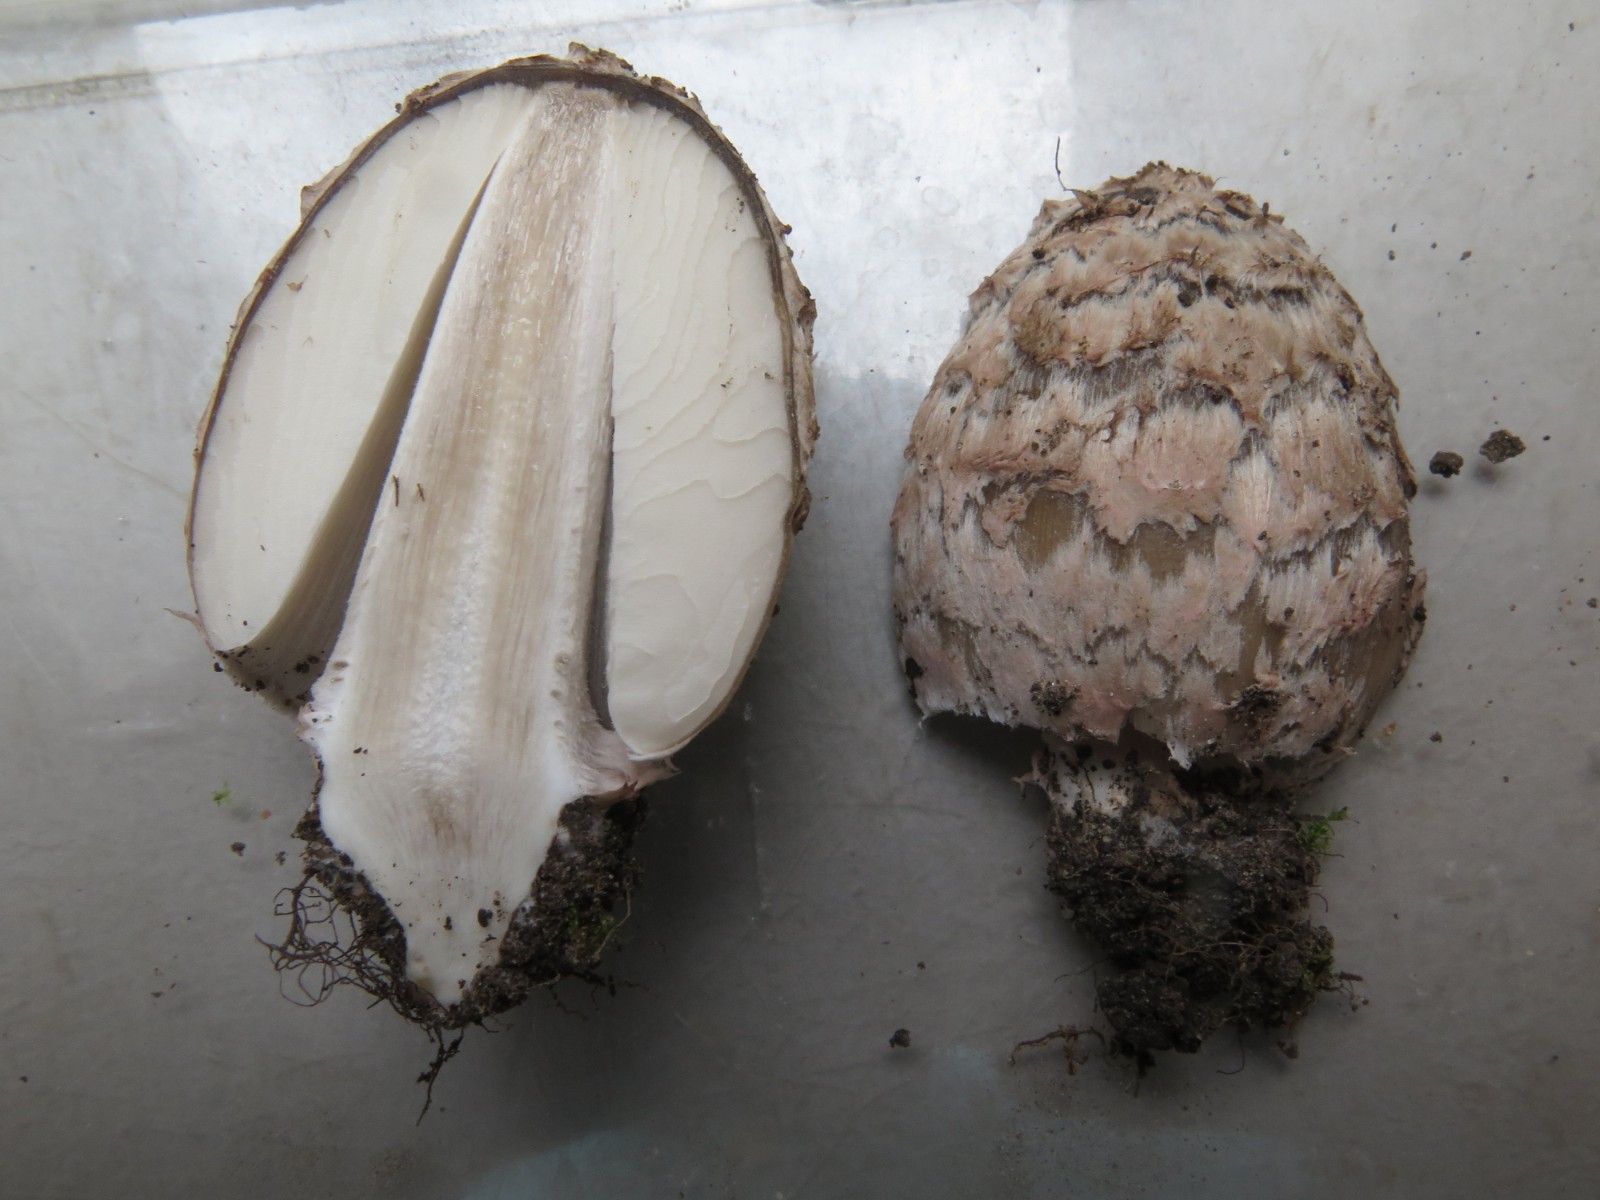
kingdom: Fungi
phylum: Basidiomycota
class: Agaricomycetes
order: Agaricales
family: Psathyrellaceae
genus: Coprinopsis
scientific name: Coprinopsis picacea
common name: skade-blækhat
